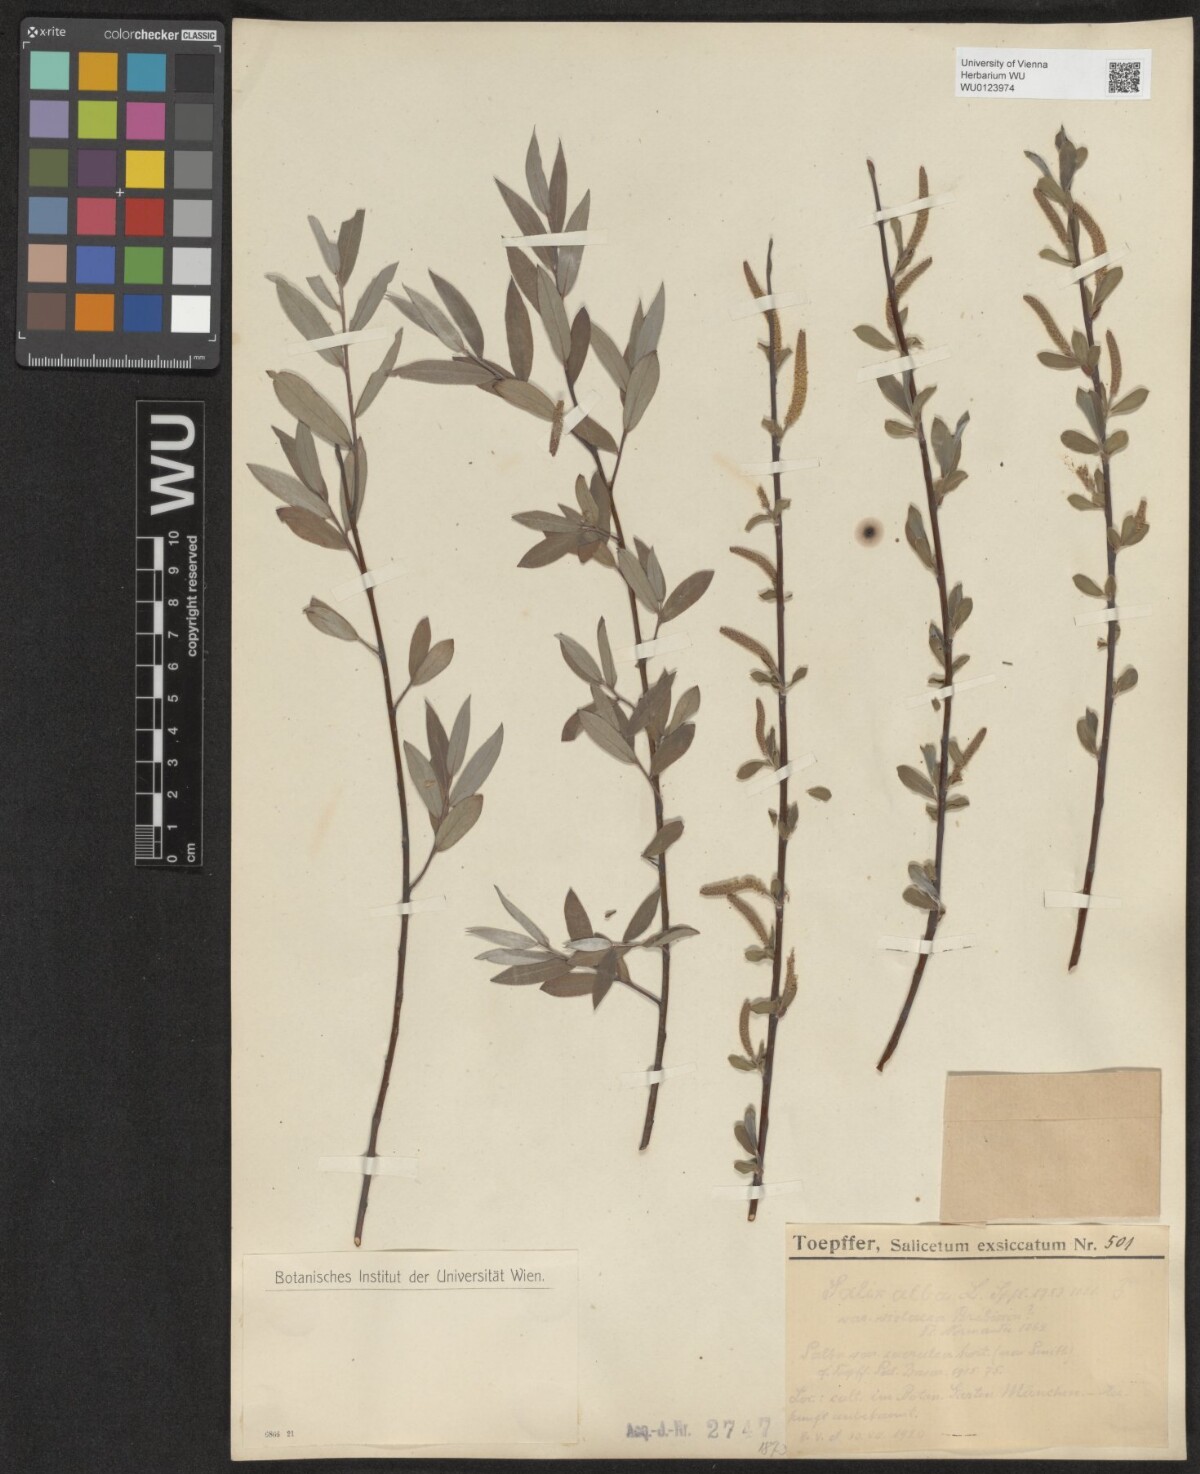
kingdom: Plantae
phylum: Tracheophyta
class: Magnoliopsida
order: Malpighiales
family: Salicaceae
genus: Salix
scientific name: Salix alba
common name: White willow
